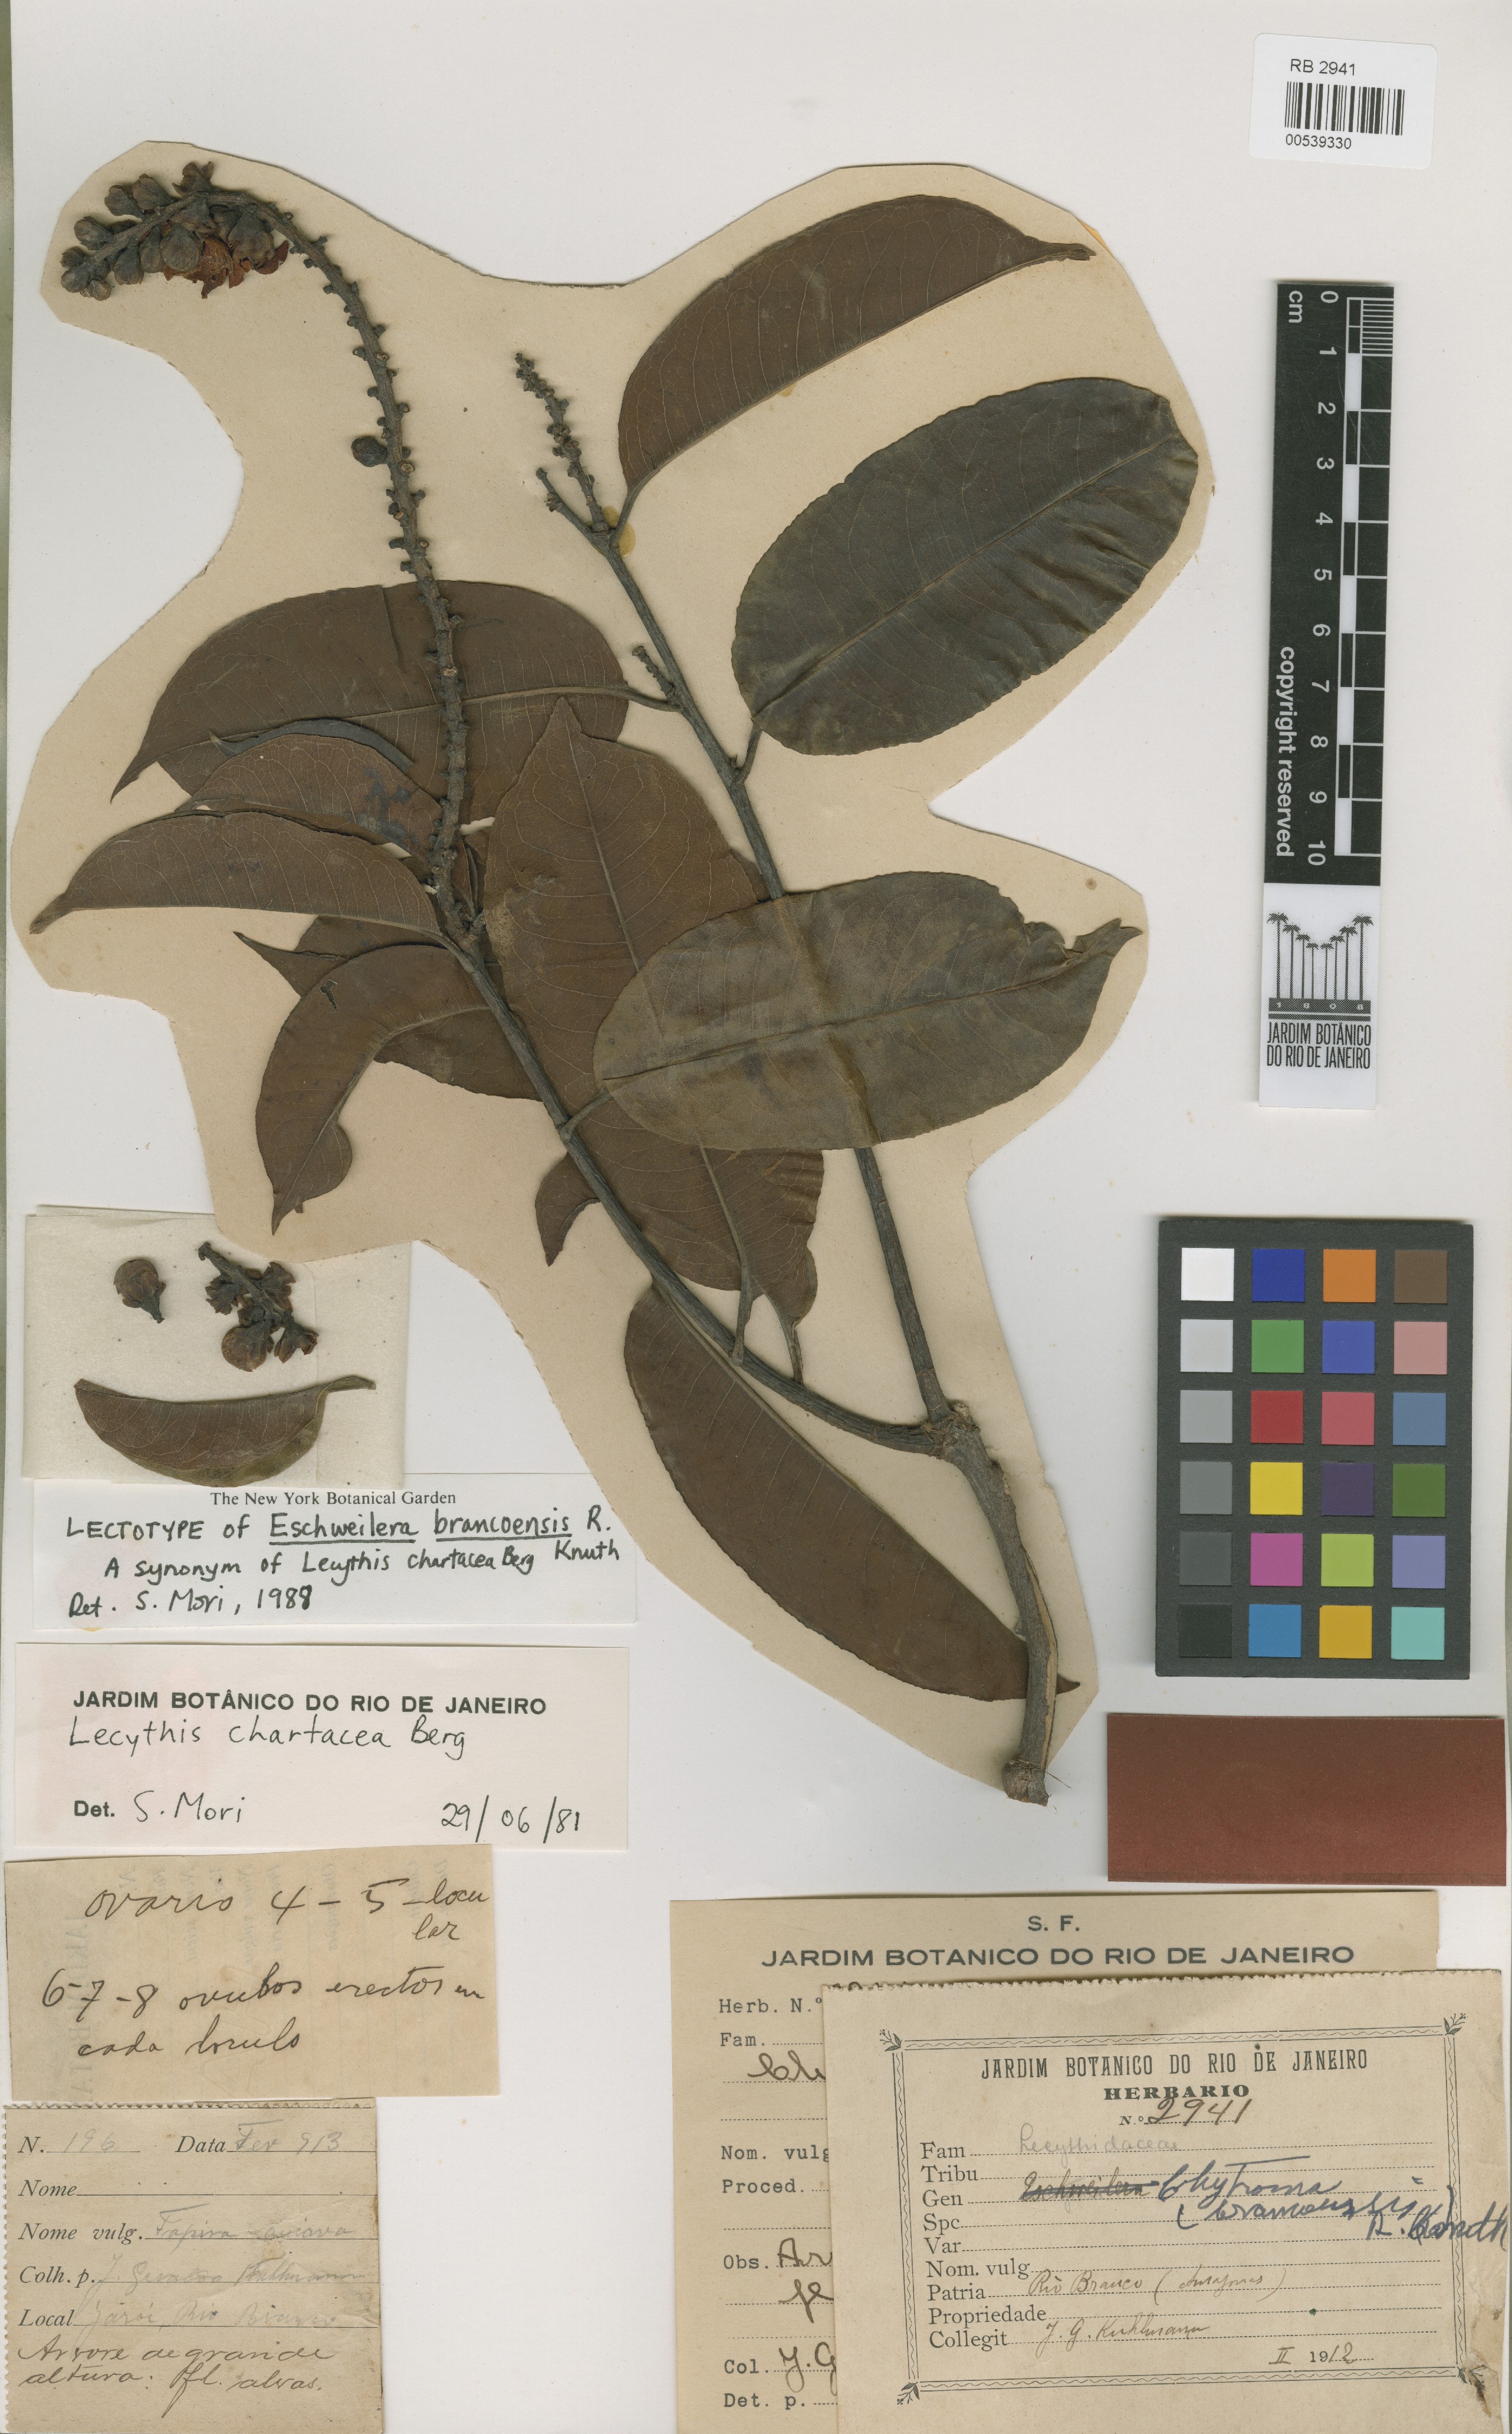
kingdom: Plantae
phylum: Tracheophyta
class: Magnoliopsida
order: Ericales
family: Lecythidaceae
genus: Lecythis
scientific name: Lecythis chartacea
